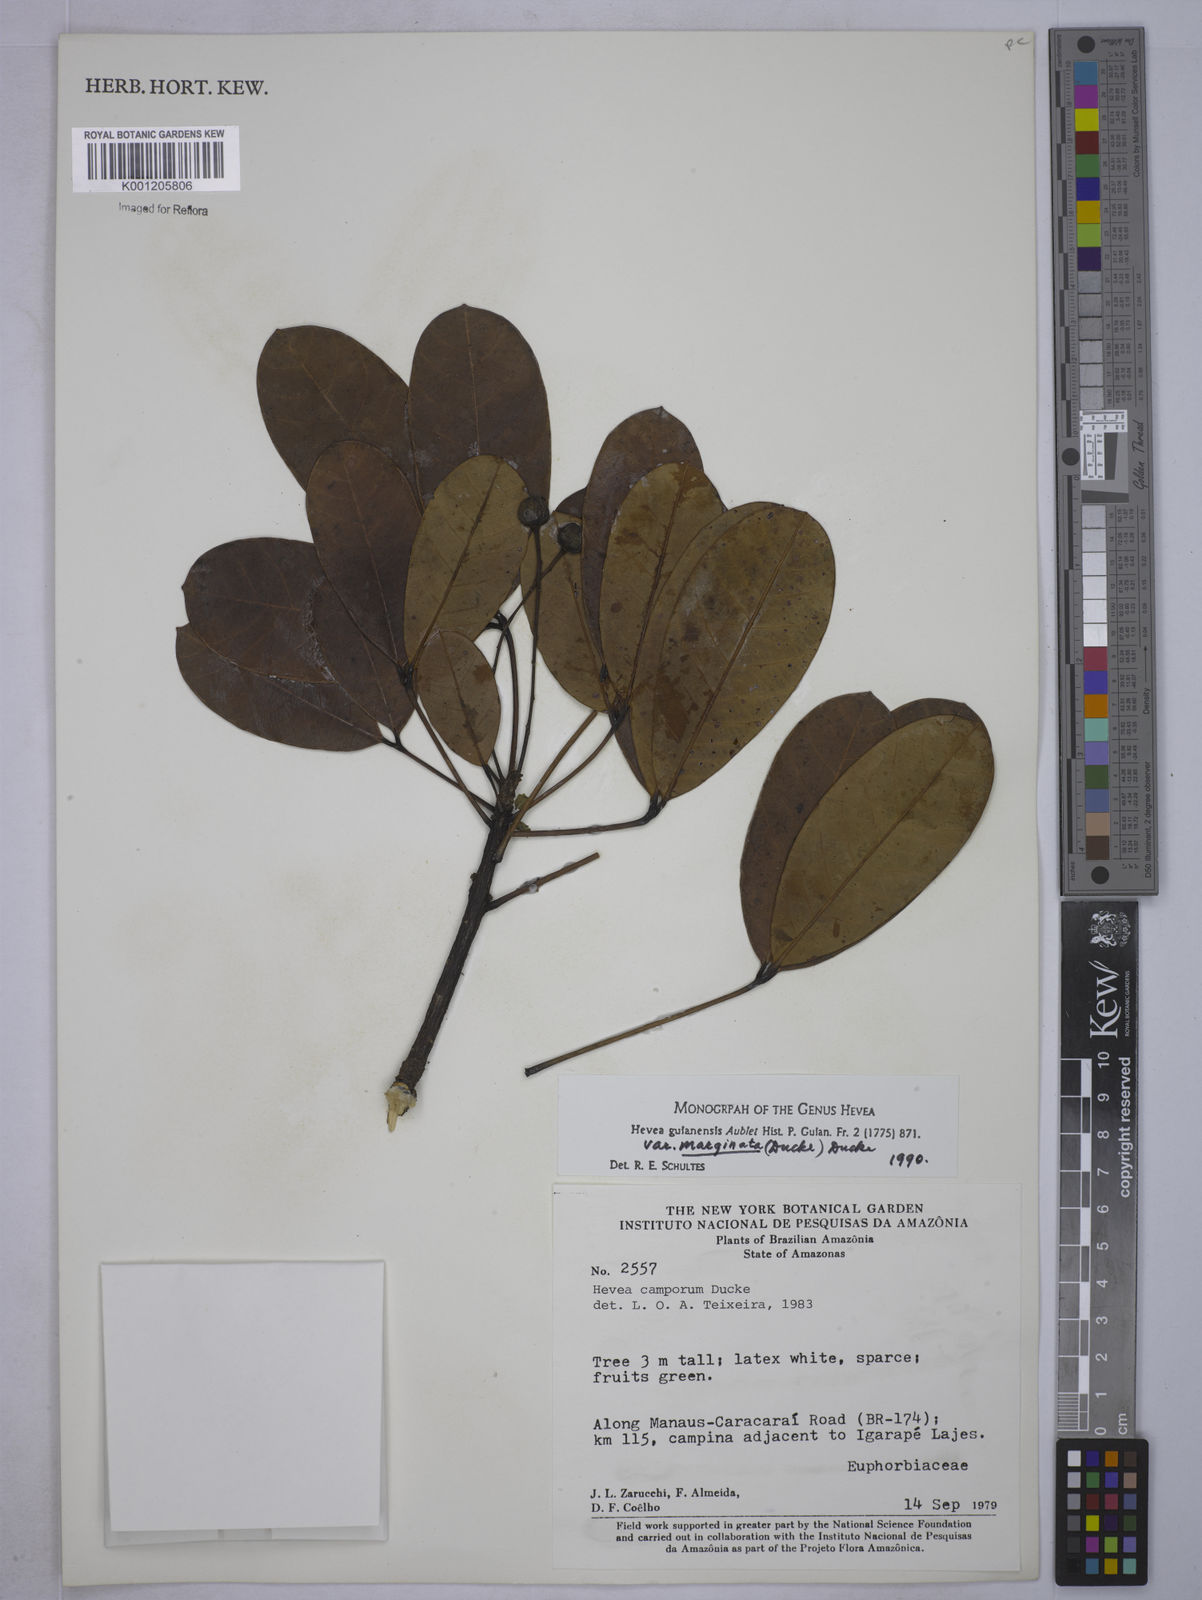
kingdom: Plantae
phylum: Tracheophyta
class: Magnoliopsida
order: Malpighiales
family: Euphorbiaceae
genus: Hevea
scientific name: Hevea guianensis
